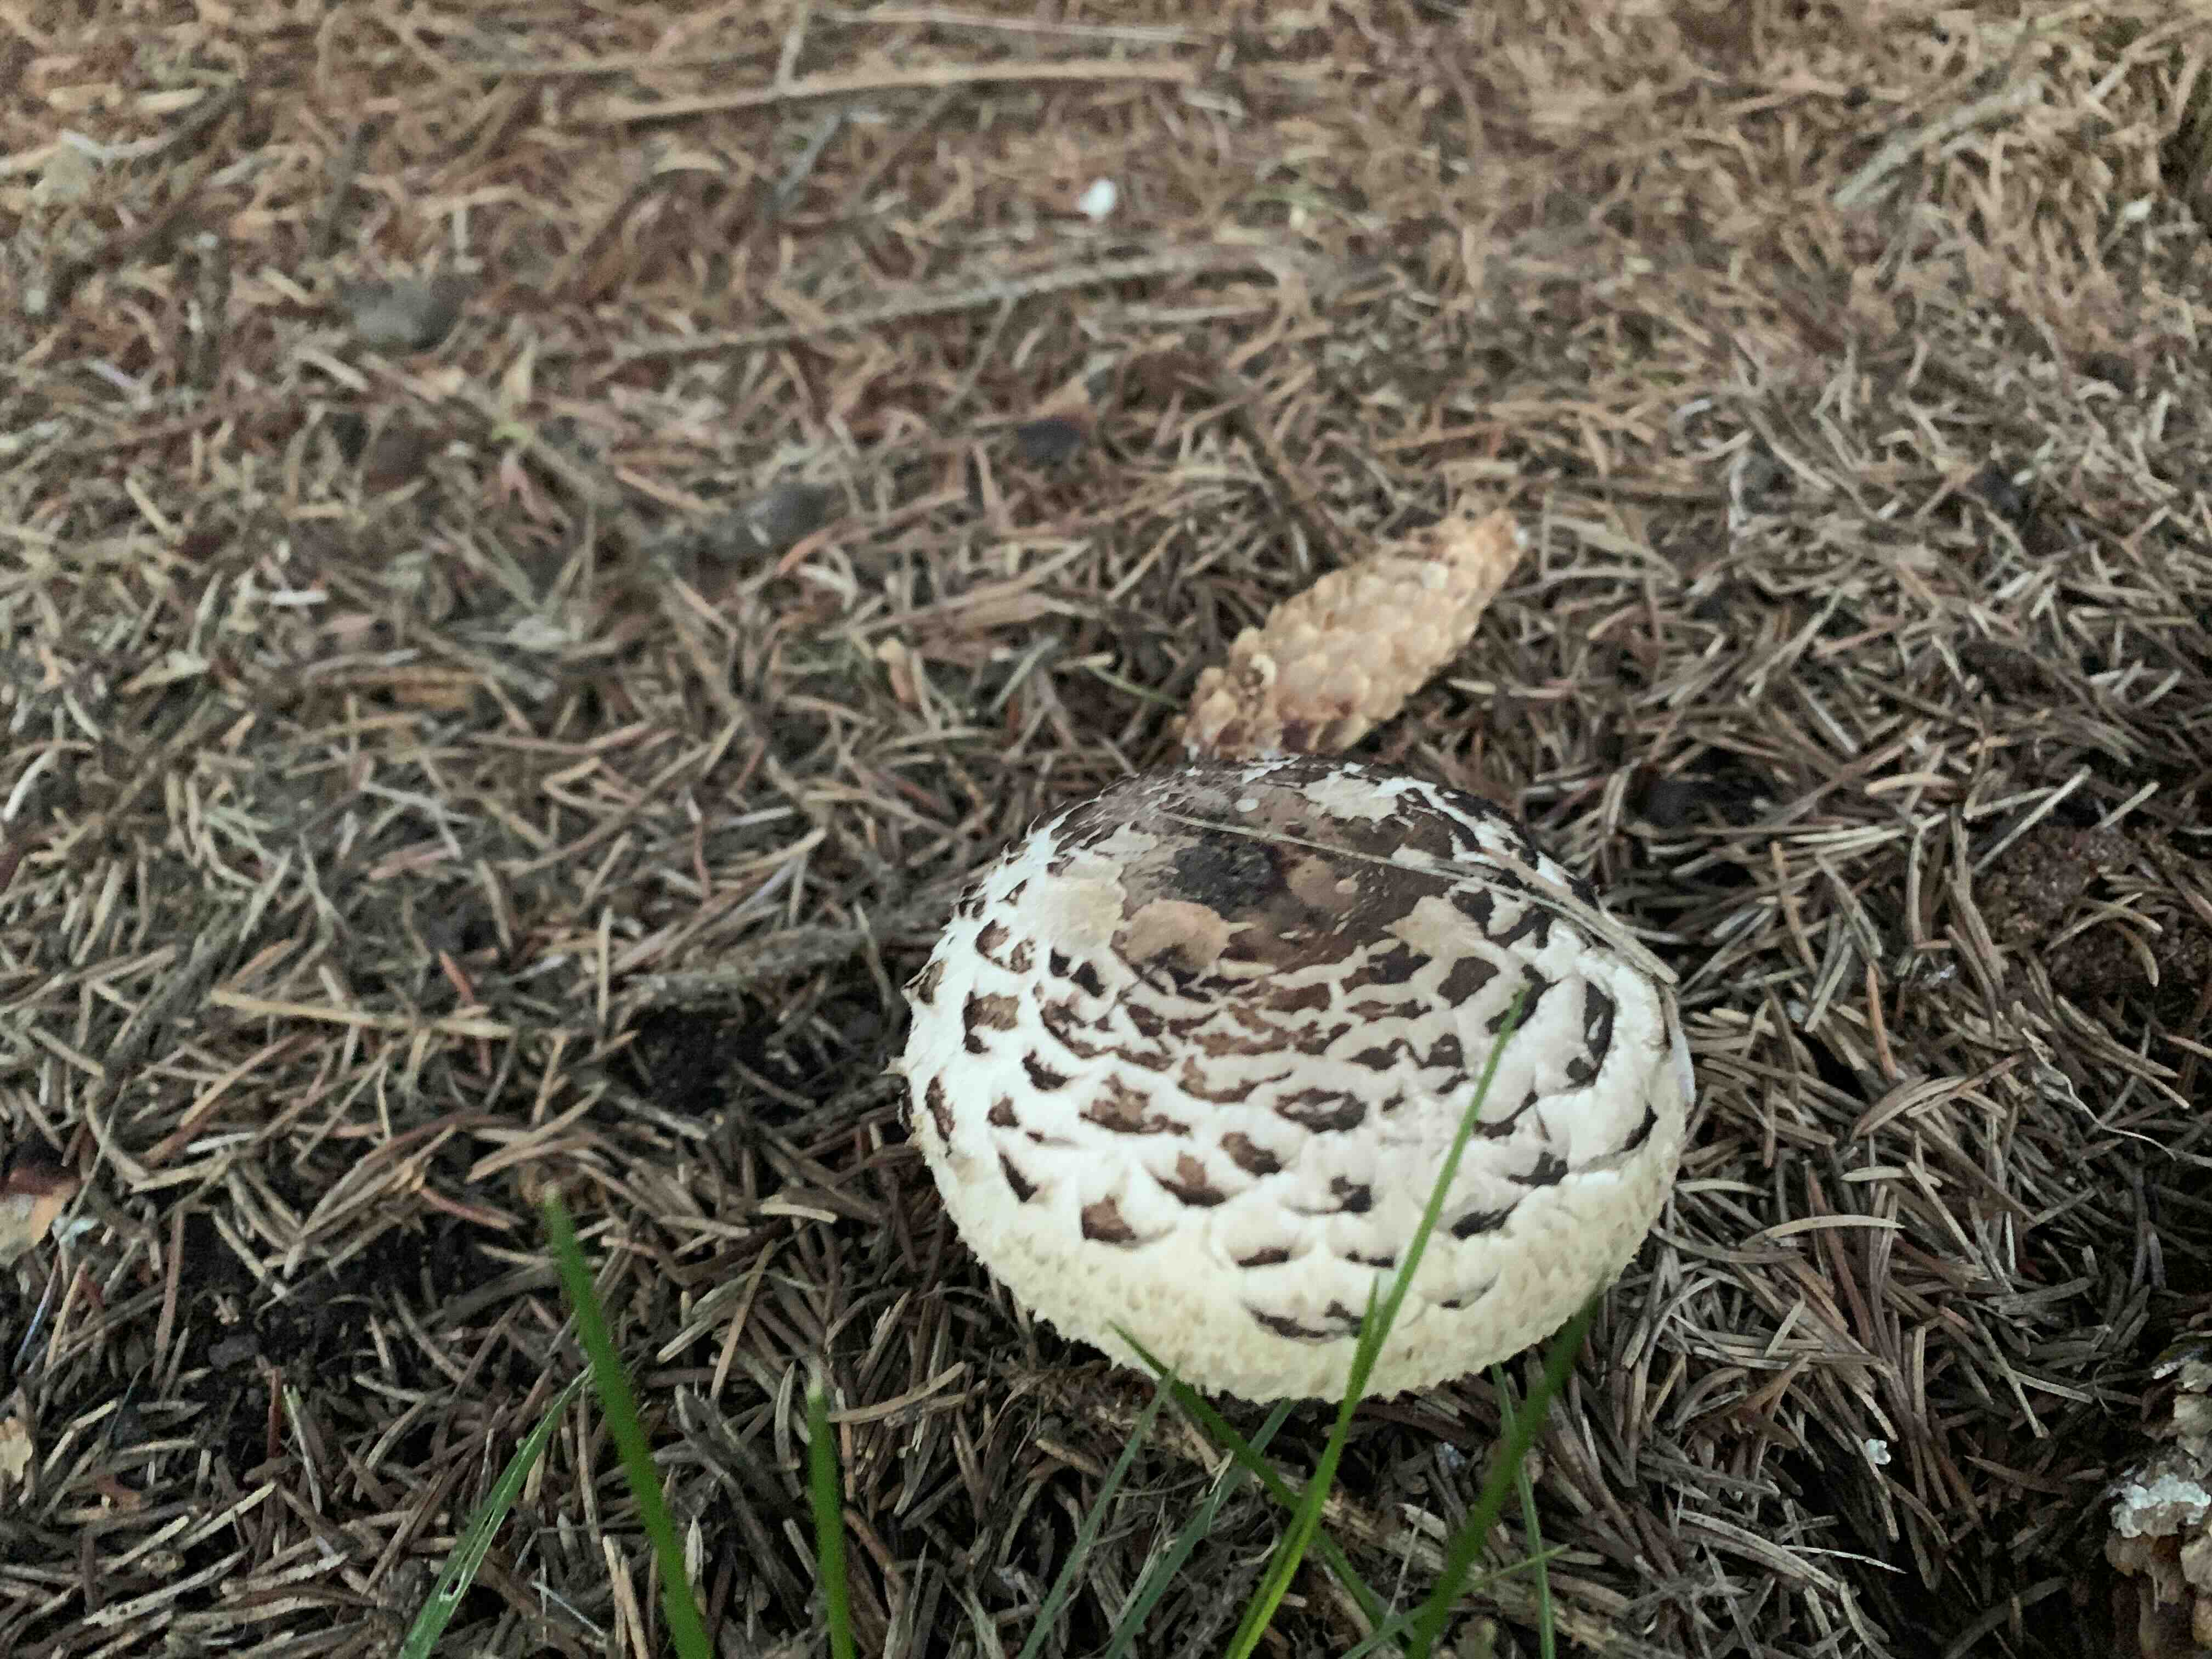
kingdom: Fungi
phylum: Basidiomycota
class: Agaricomycetes
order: Agaricales
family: Agaricaceae
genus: Chlorophyllum
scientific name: Chlorophyllum brunneum
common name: giftig rabarberhat
